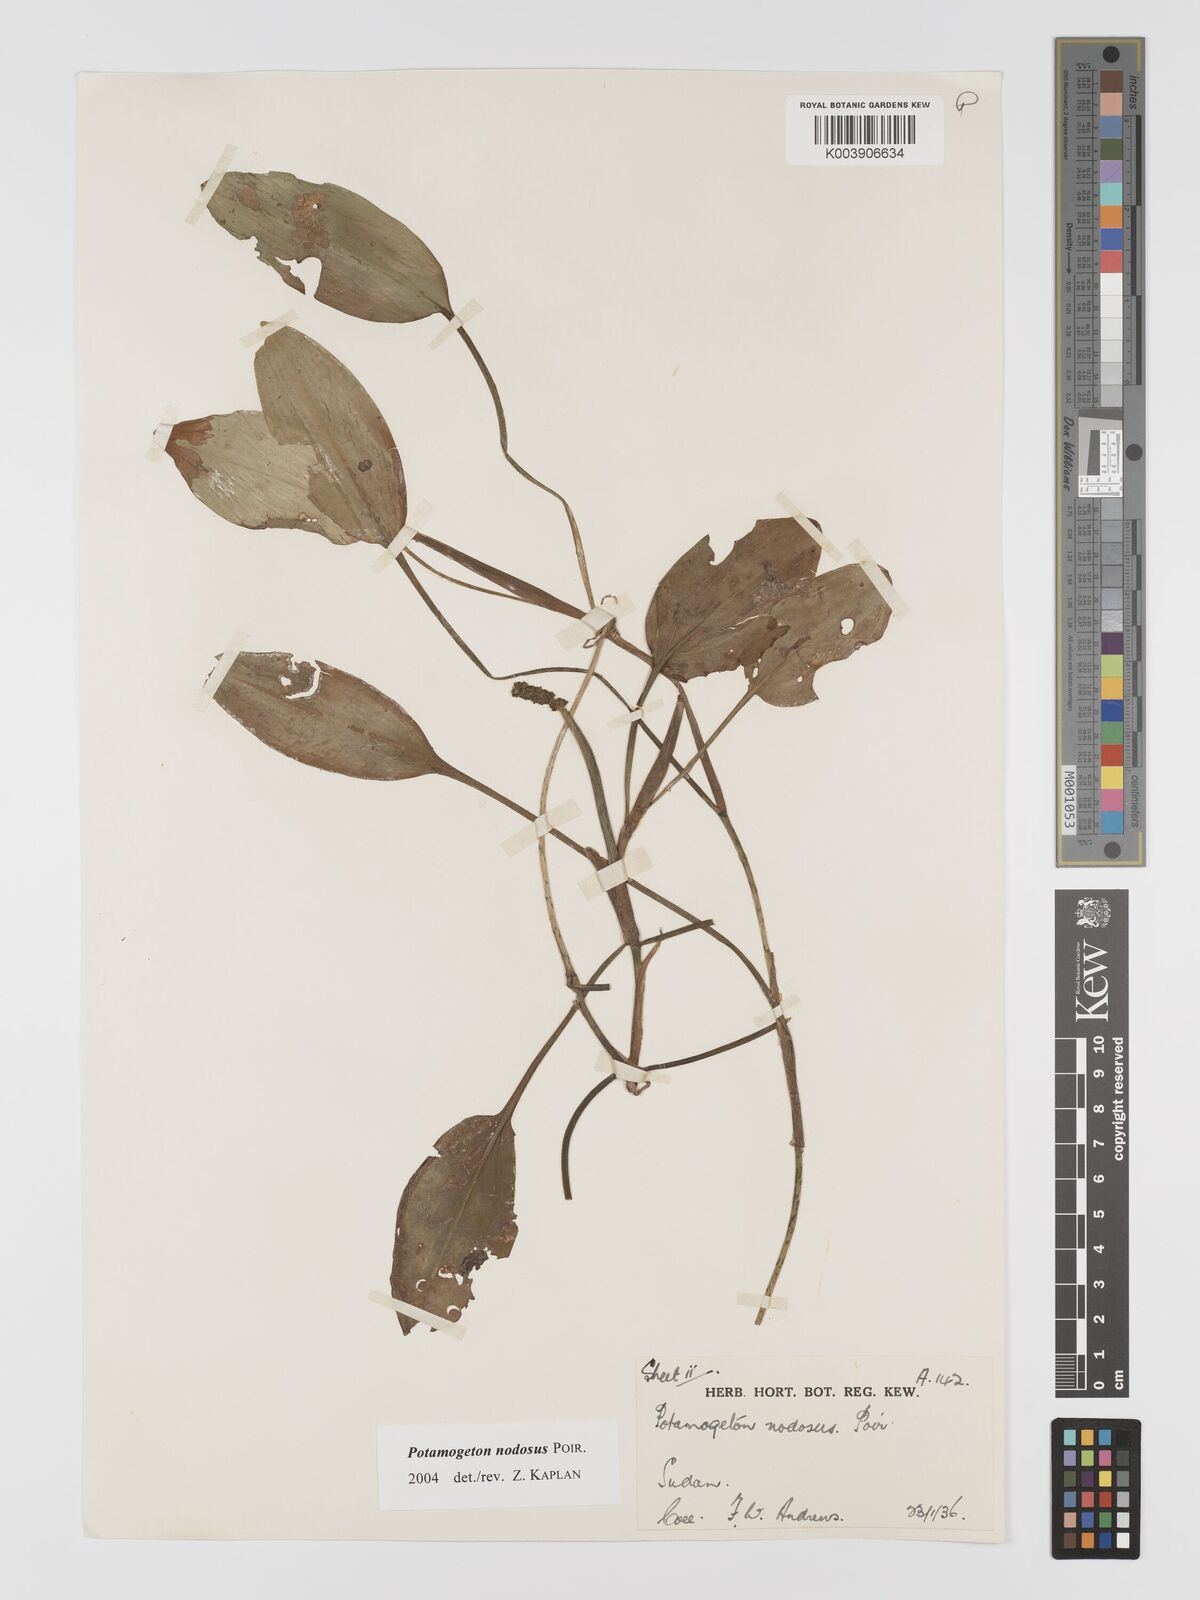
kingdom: Plantae
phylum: Tracheophyta
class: Liliopsida
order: Alismatales
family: Potamogetonaceae
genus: Potamogeton
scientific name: Potamogeton nodosus
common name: Loddon pondweed
